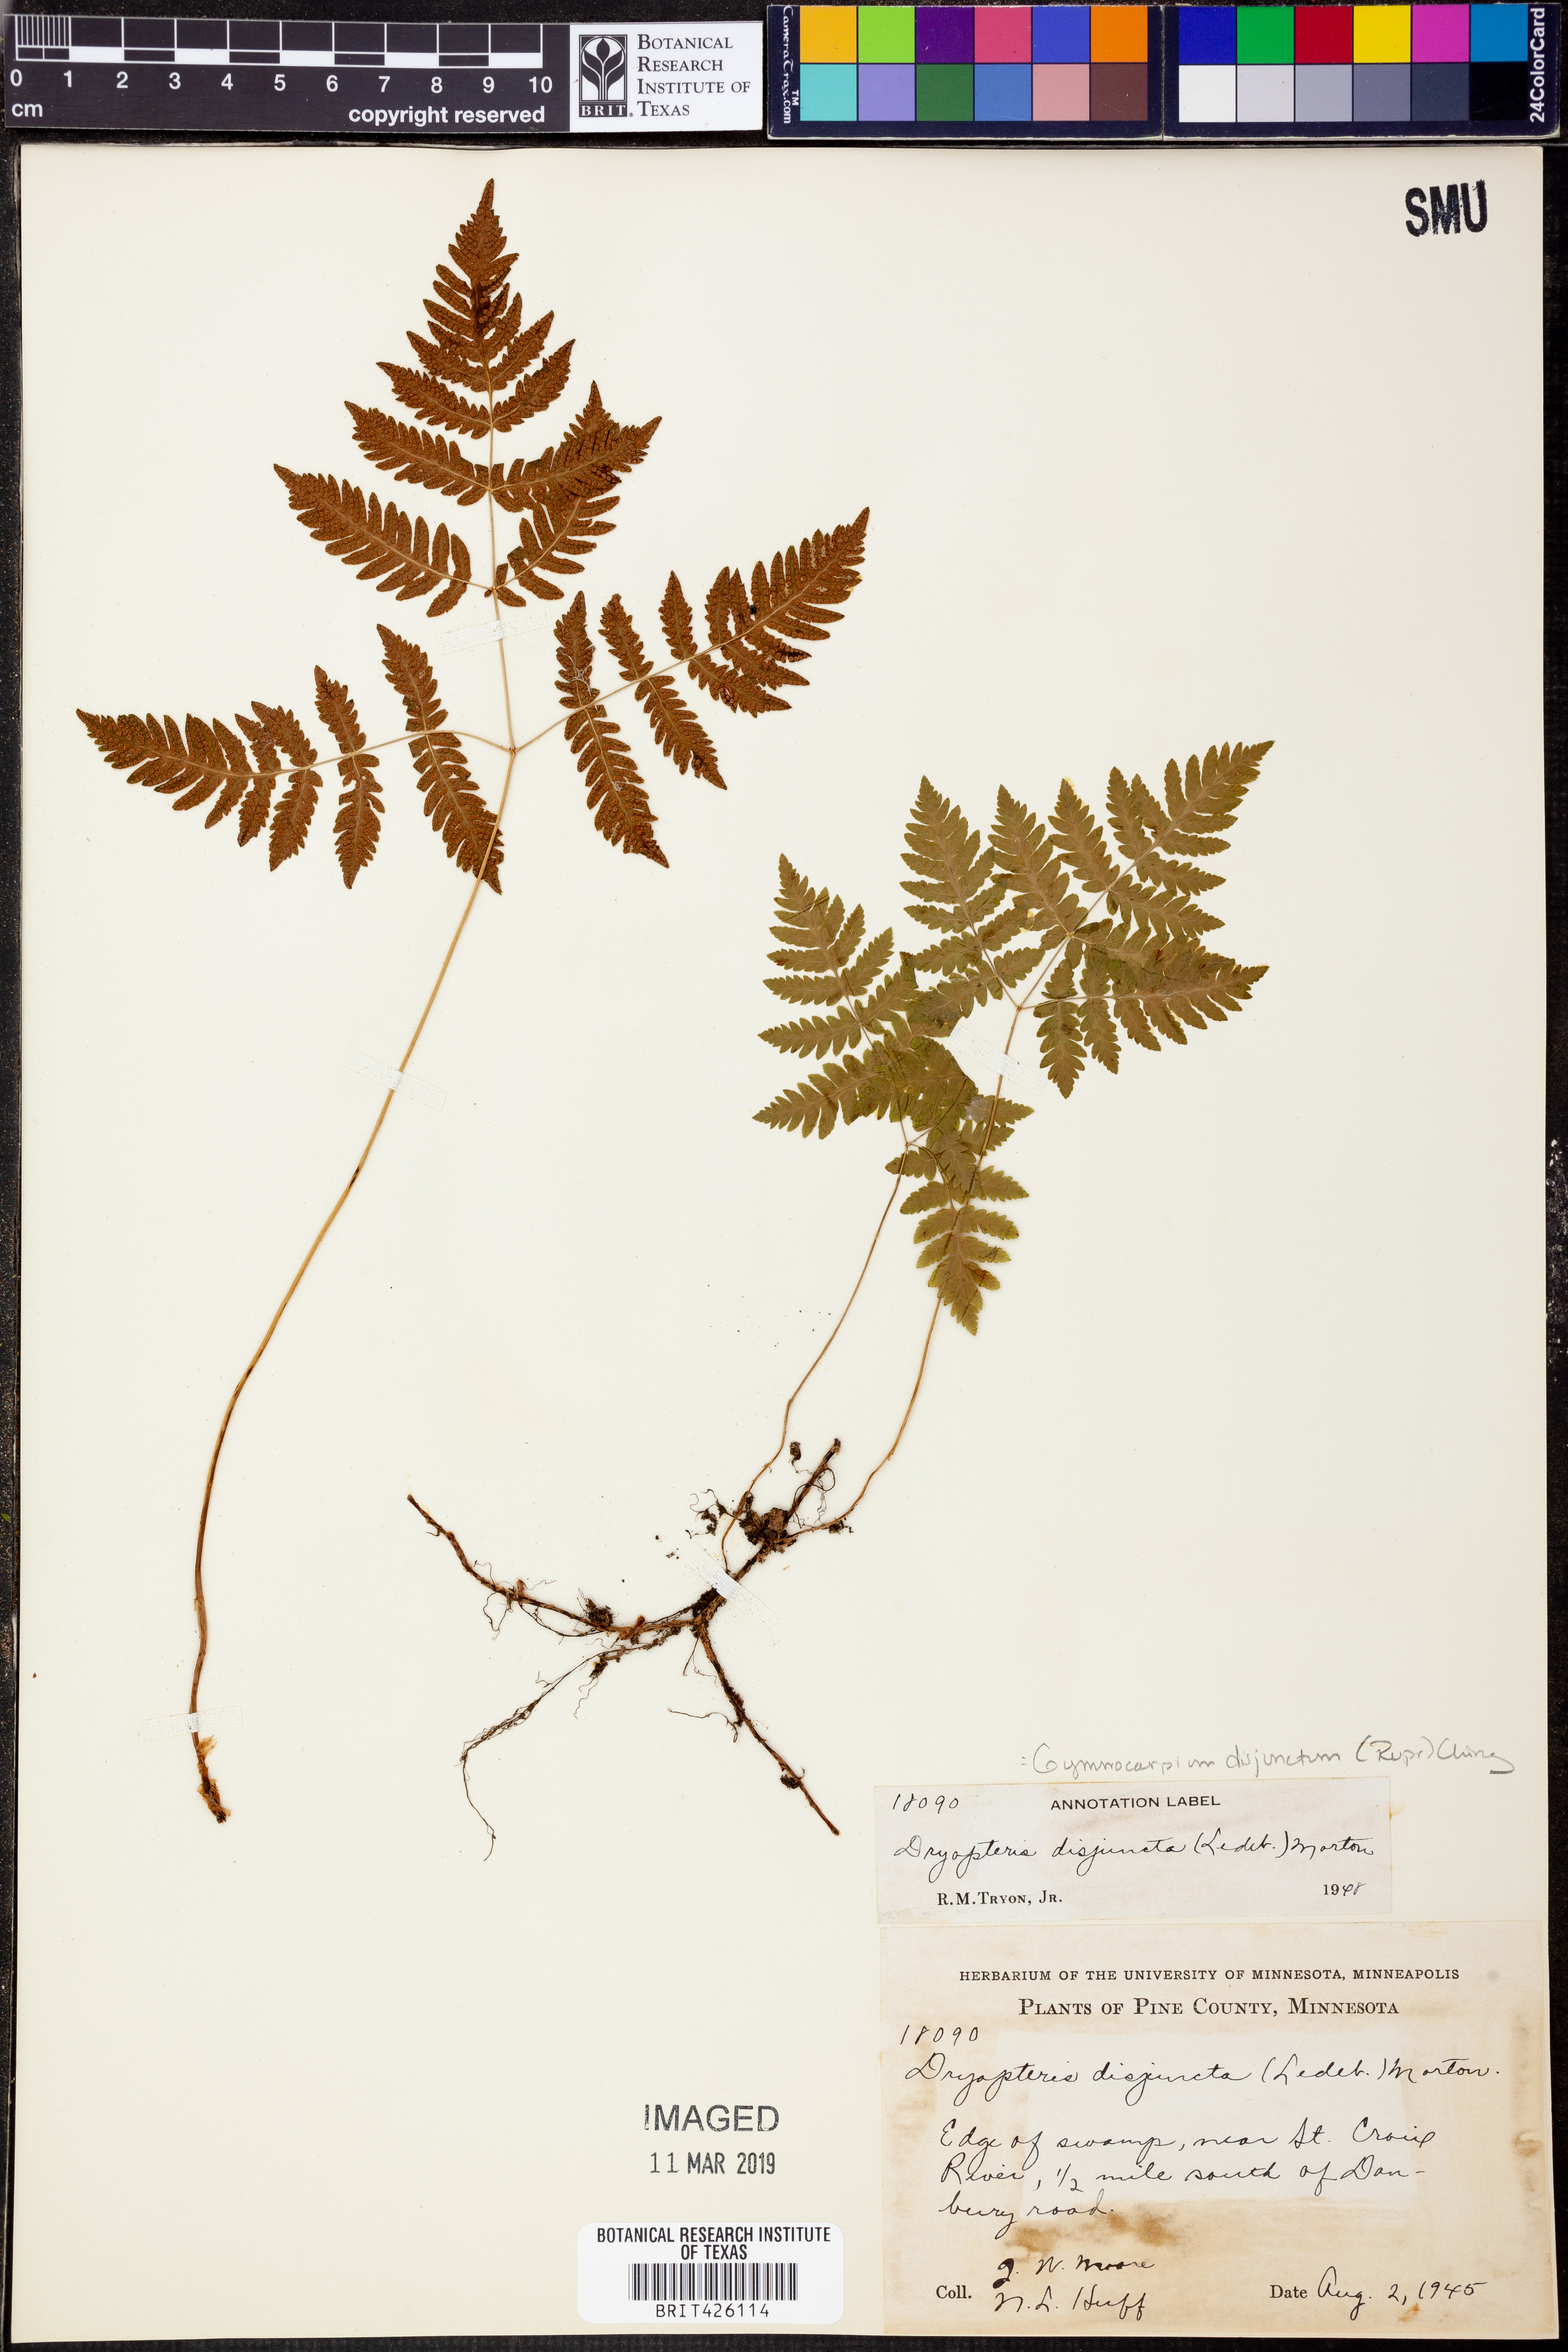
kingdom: Plantae
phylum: Tracheophyta
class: Polypodiopsida
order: Polypodiales
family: Cystopteridaceae
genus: Gymnocarpium
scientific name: Gymnocarpium disjunctum
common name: Western oak fern
